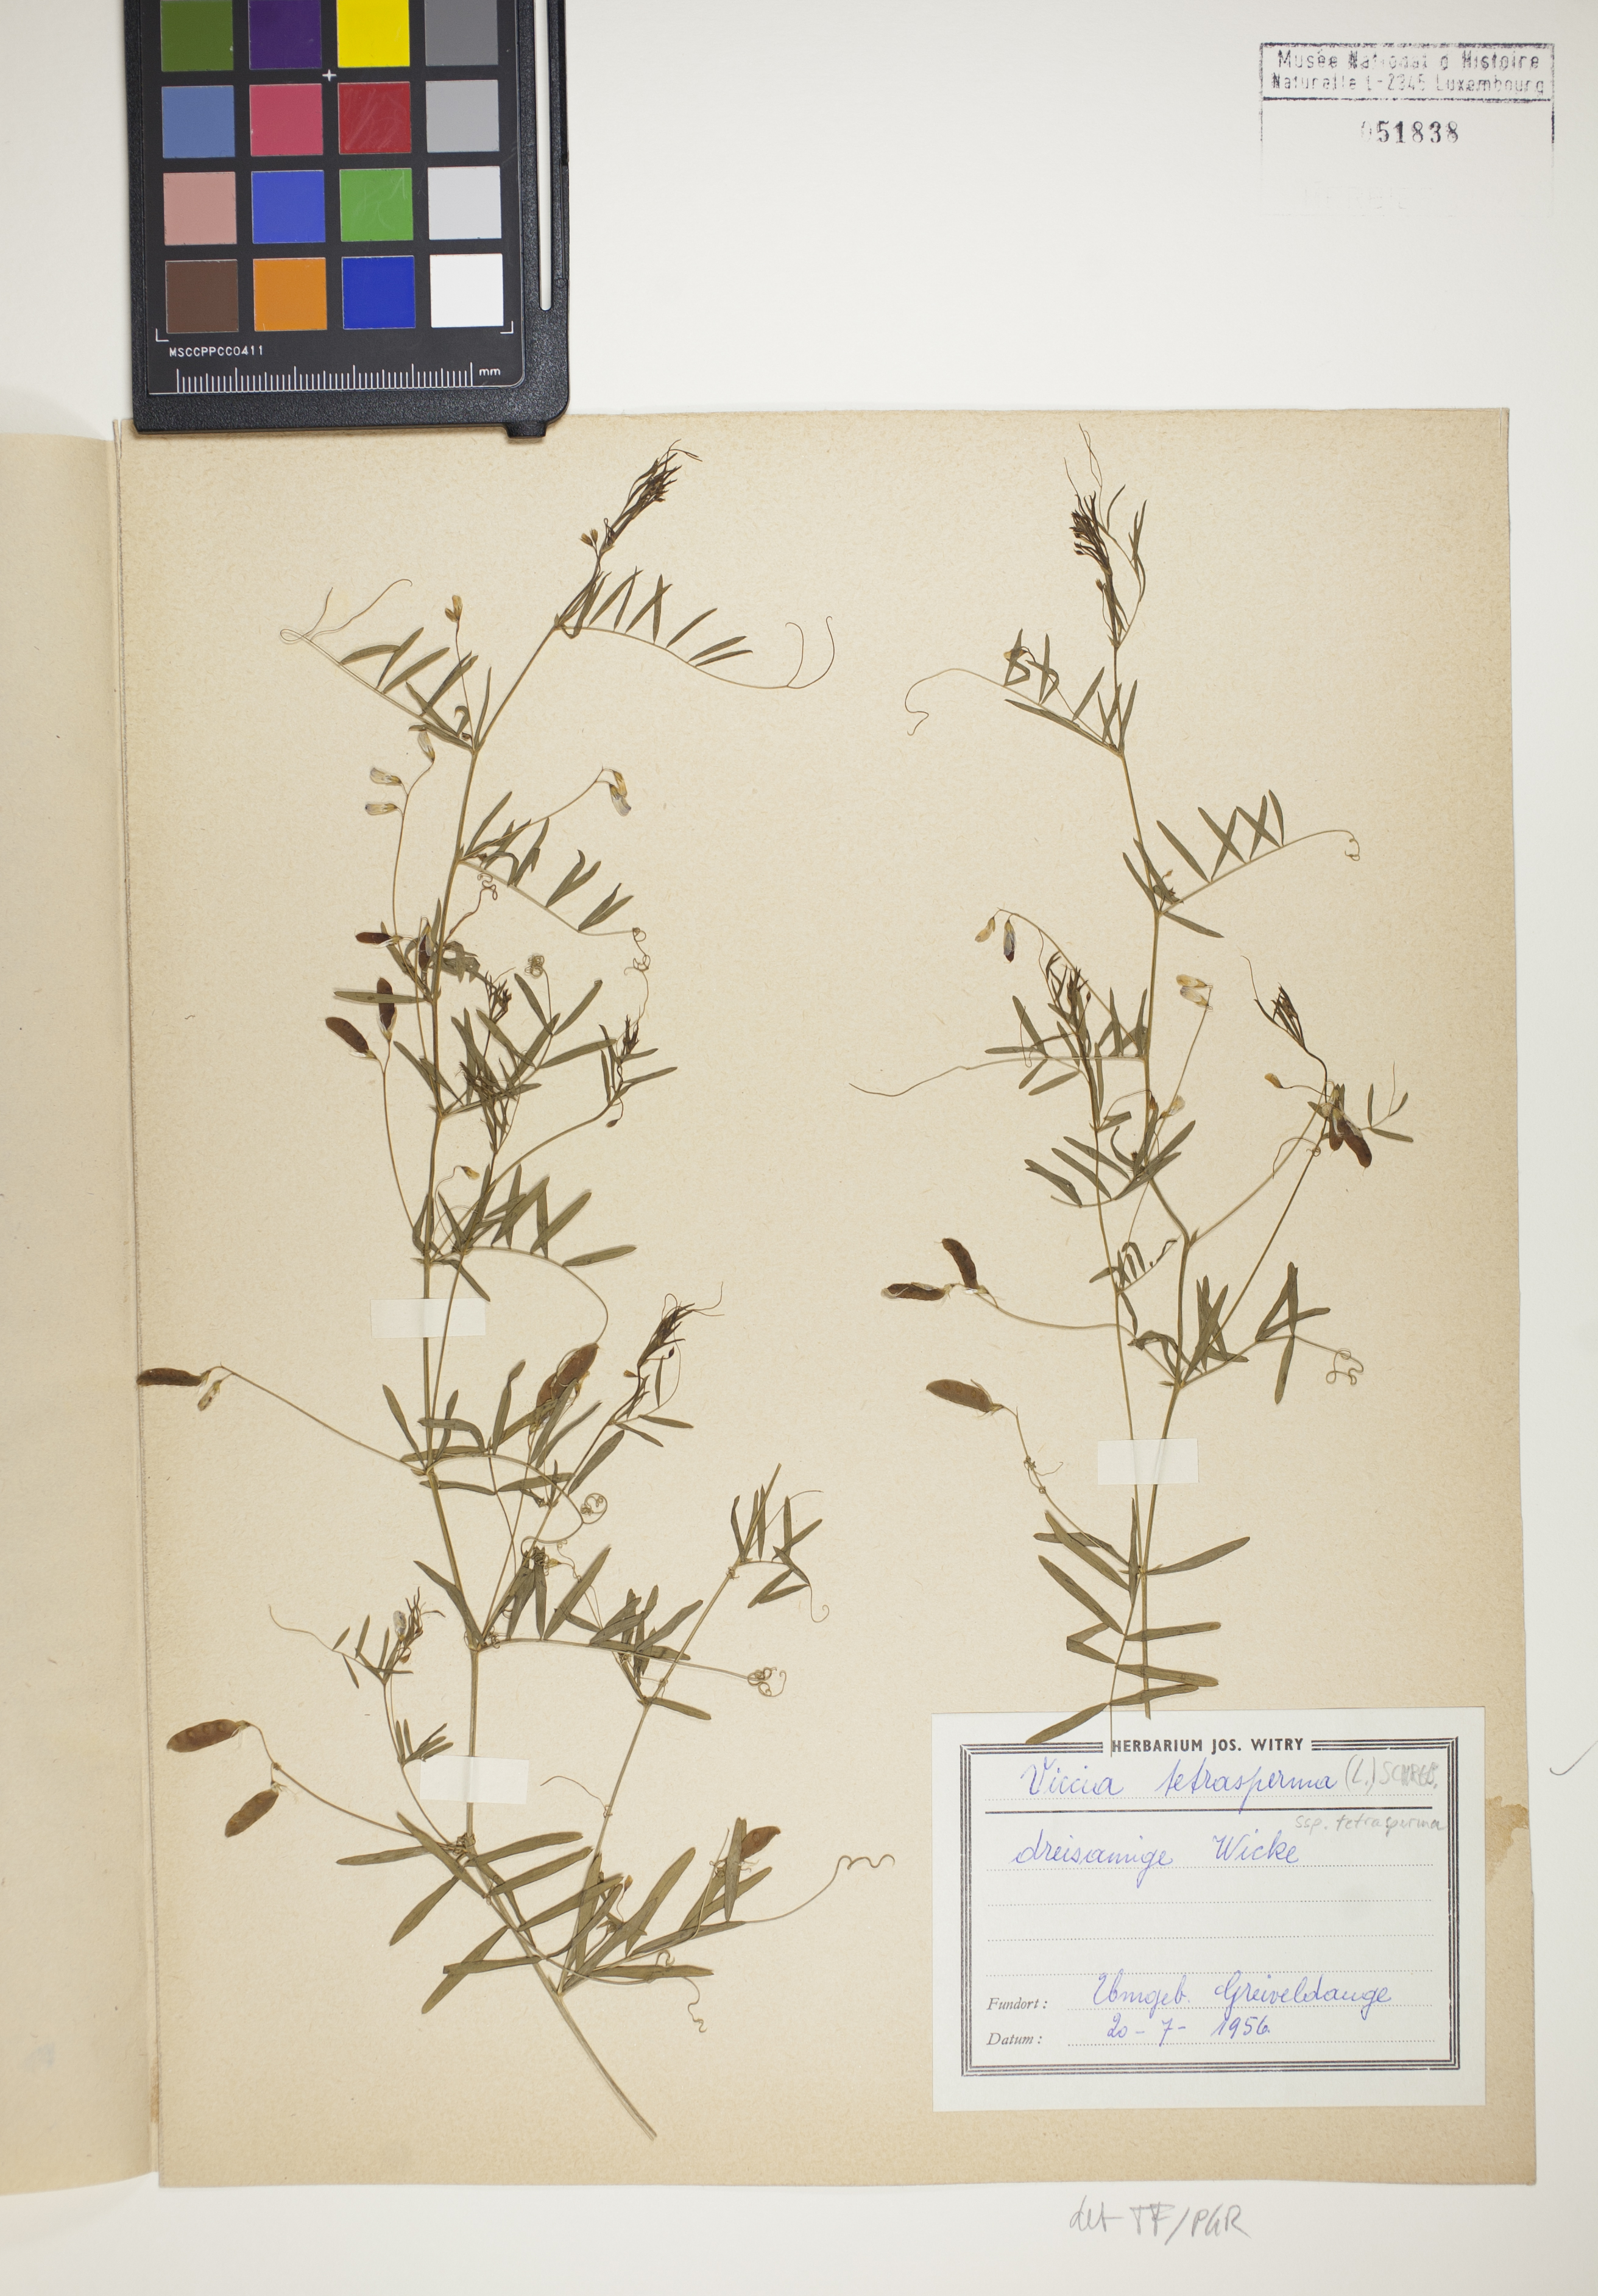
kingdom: Plantae
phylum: Tracheophyta
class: Magnoliopsida
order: Fabales
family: Fabaceae
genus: Vicia
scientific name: Vicia tetrasperma
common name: Smooth tare
